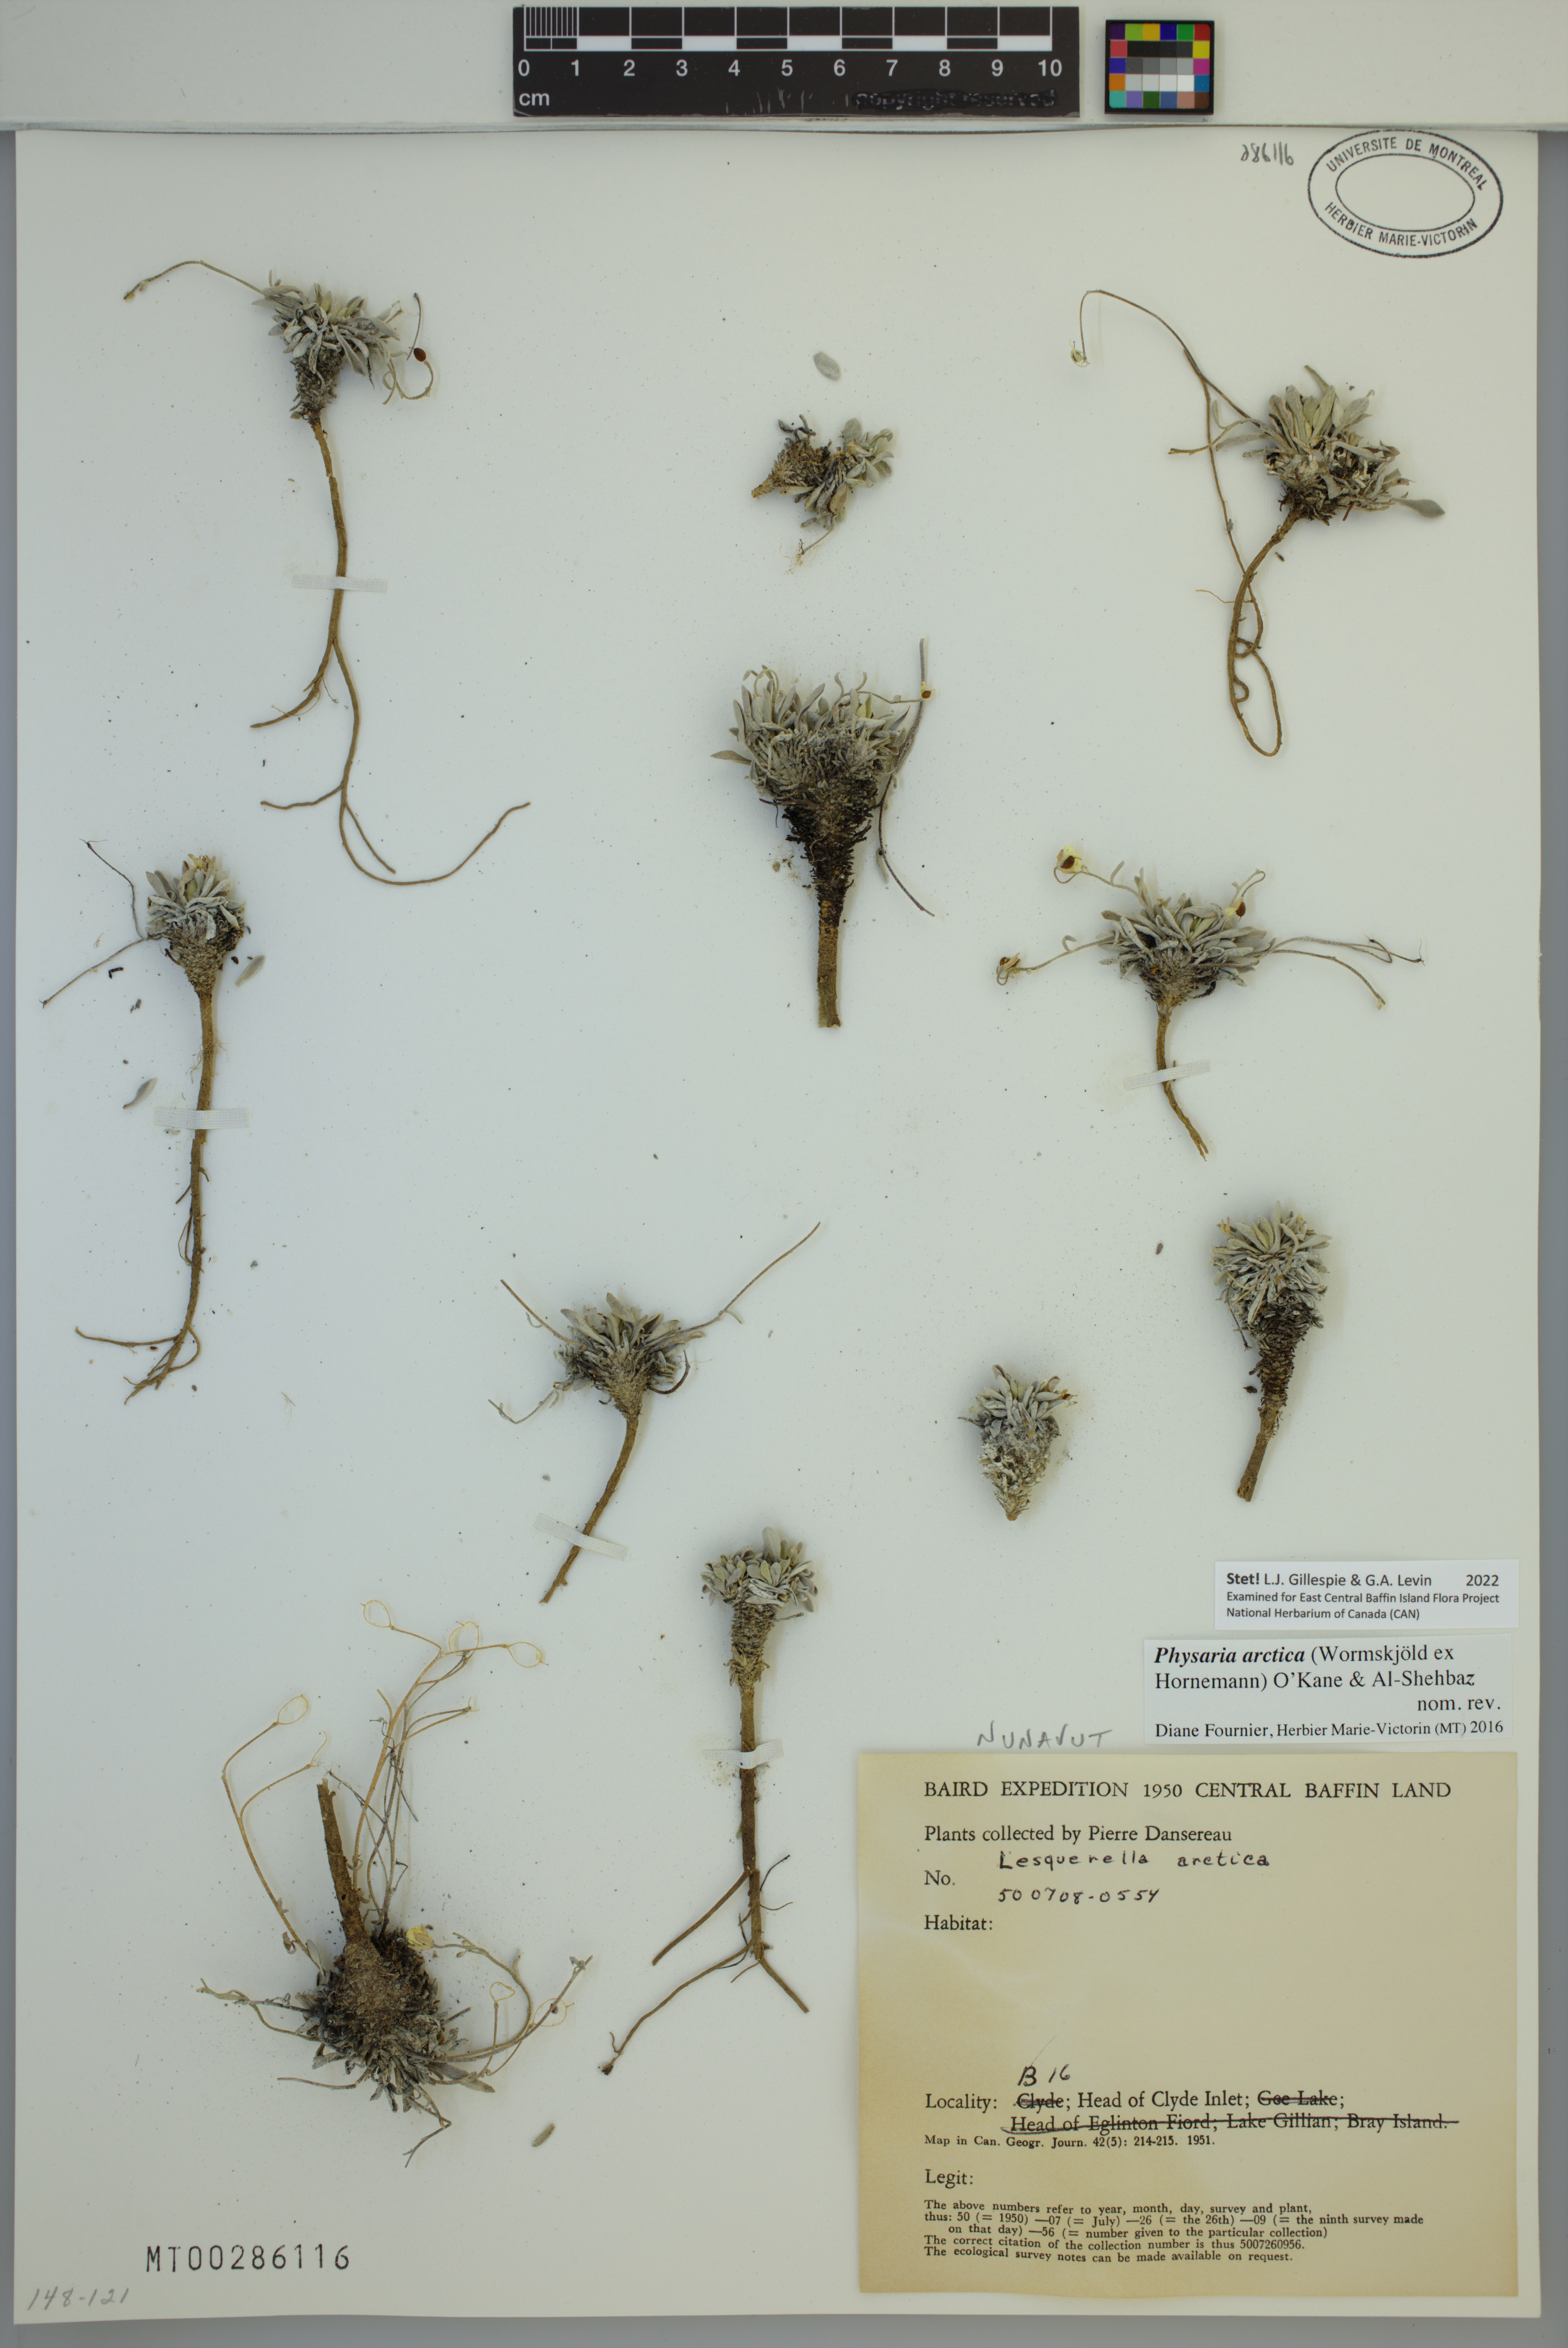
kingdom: Plantae
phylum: Tracheophyta
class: Magnoliopsida
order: Brassicales
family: Brassicaceae
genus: Physaria
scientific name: Physaria arctica
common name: Arctic bladderpod
